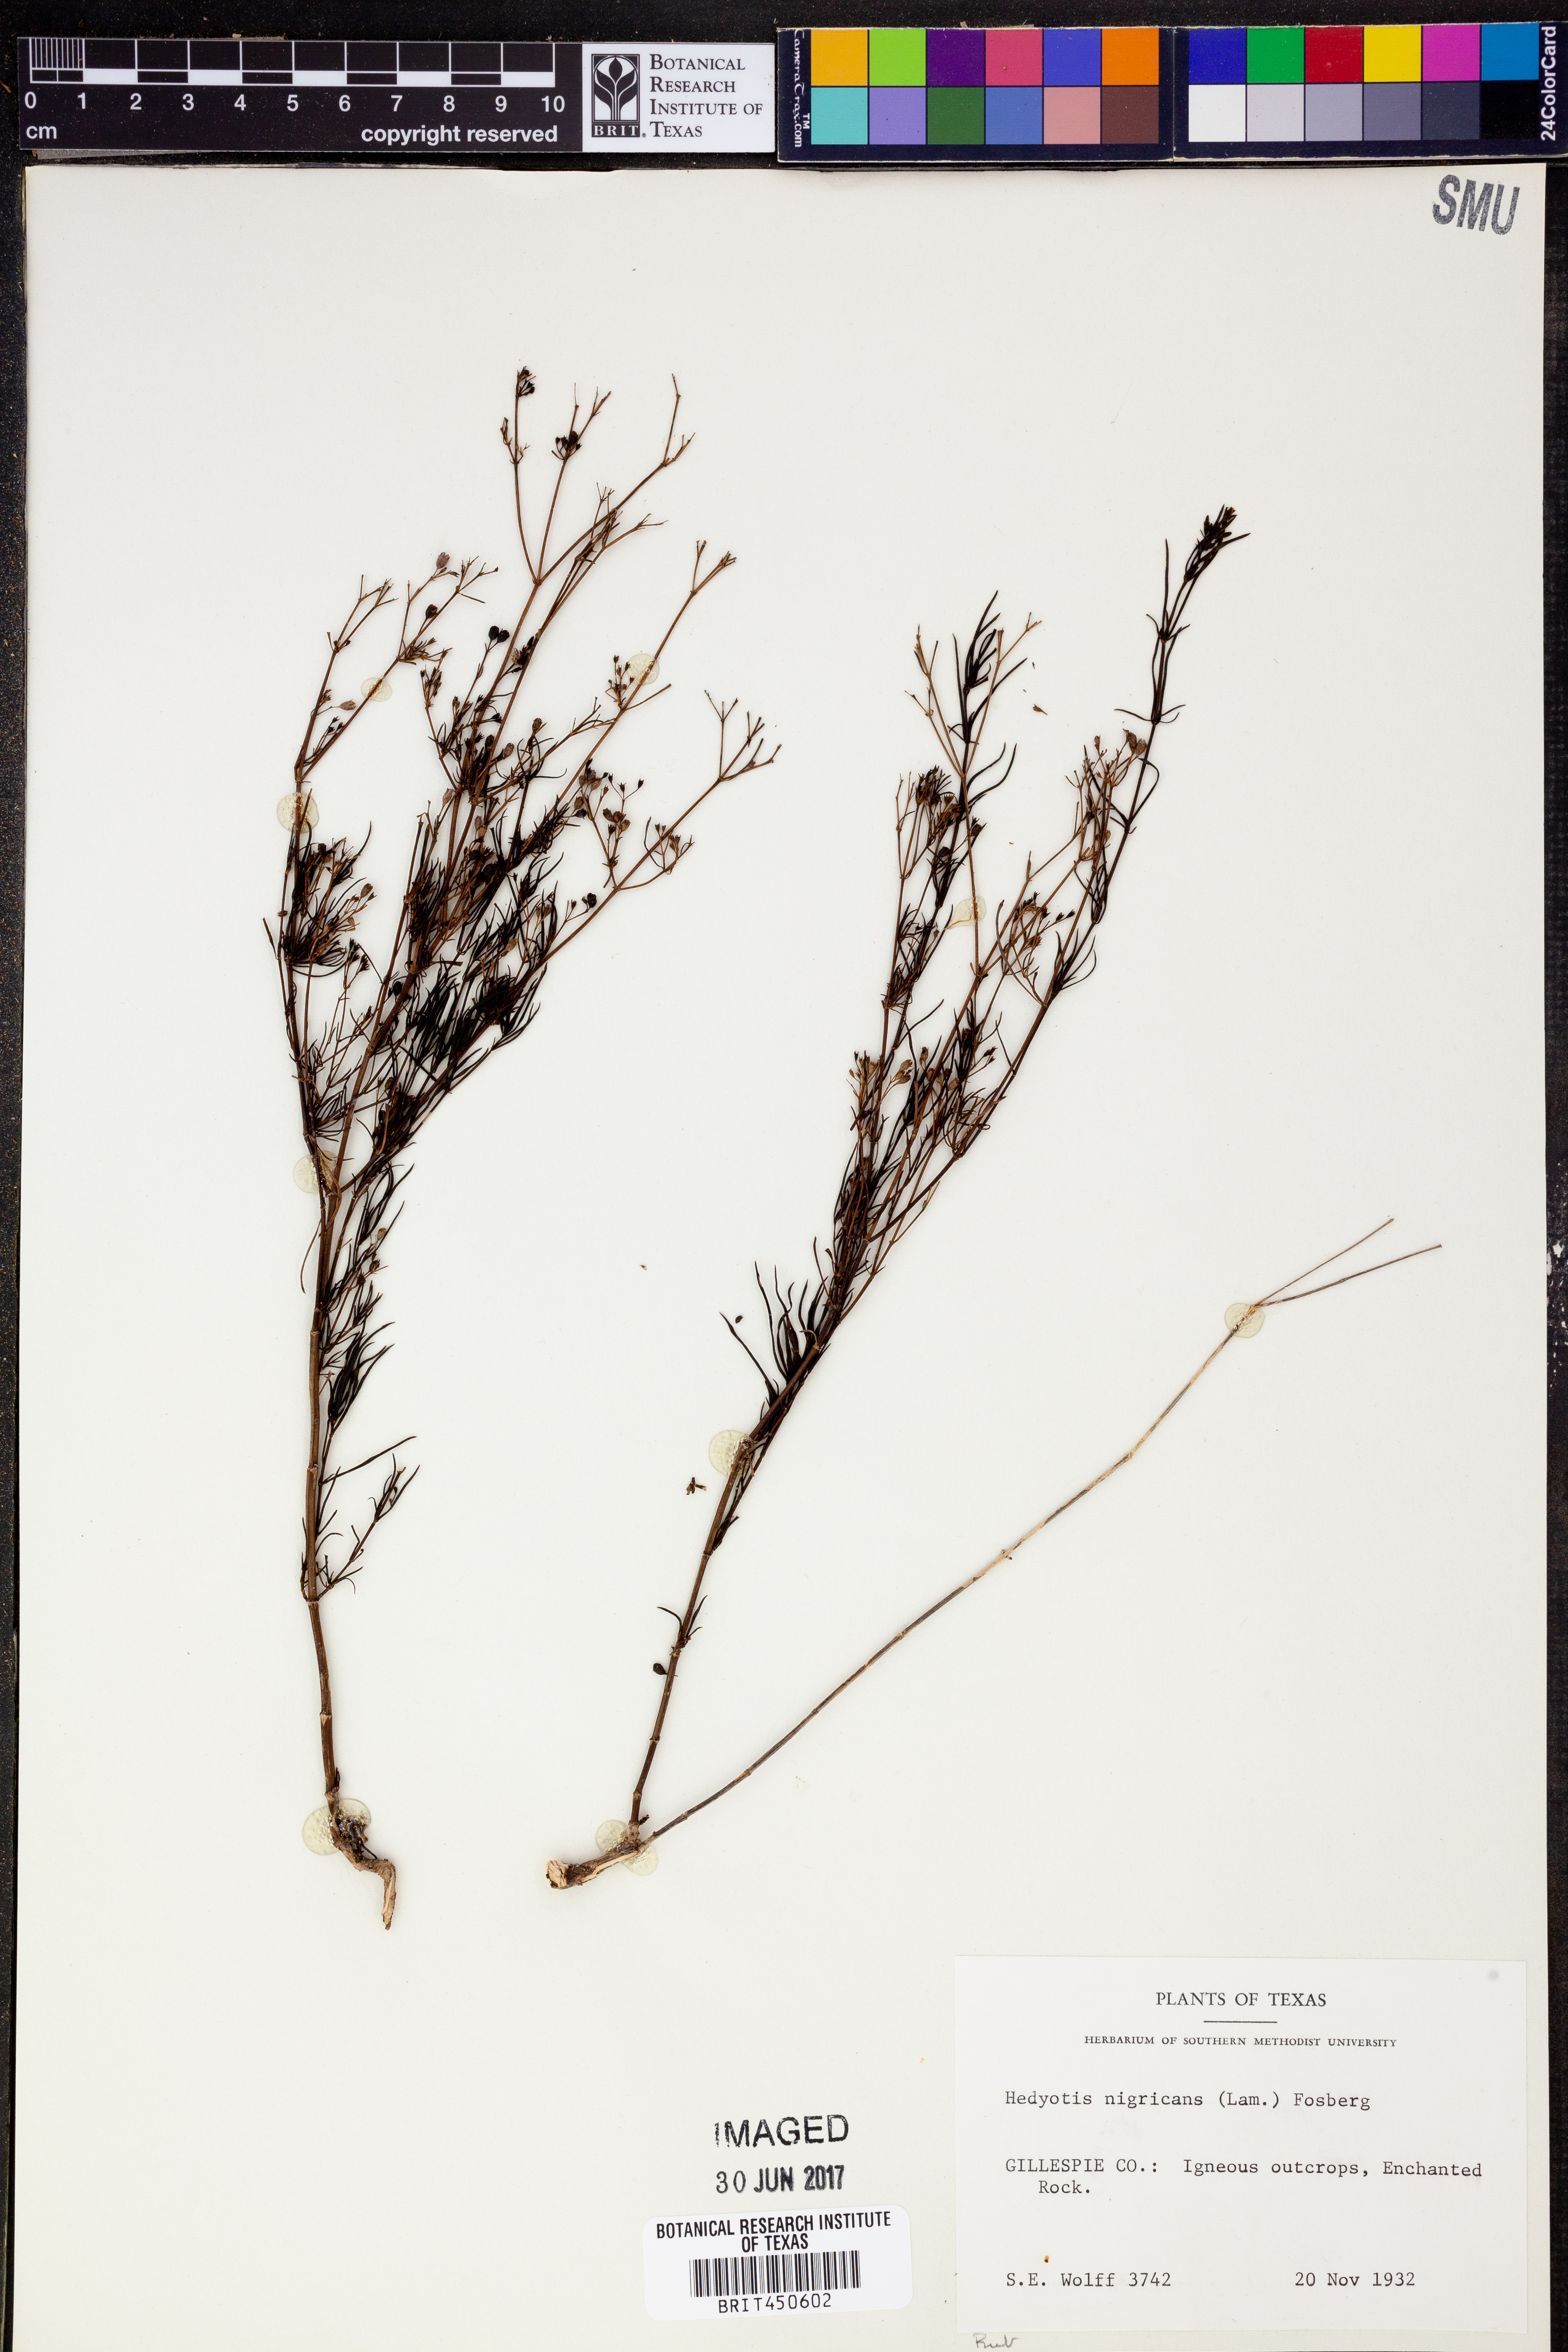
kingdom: Plantae
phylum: Tracheophyta
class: Magnoliopsida
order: Gentianales
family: Rubiaceae
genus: Stenaria
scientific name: Stenaria nigricans
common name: Diamondflowers
